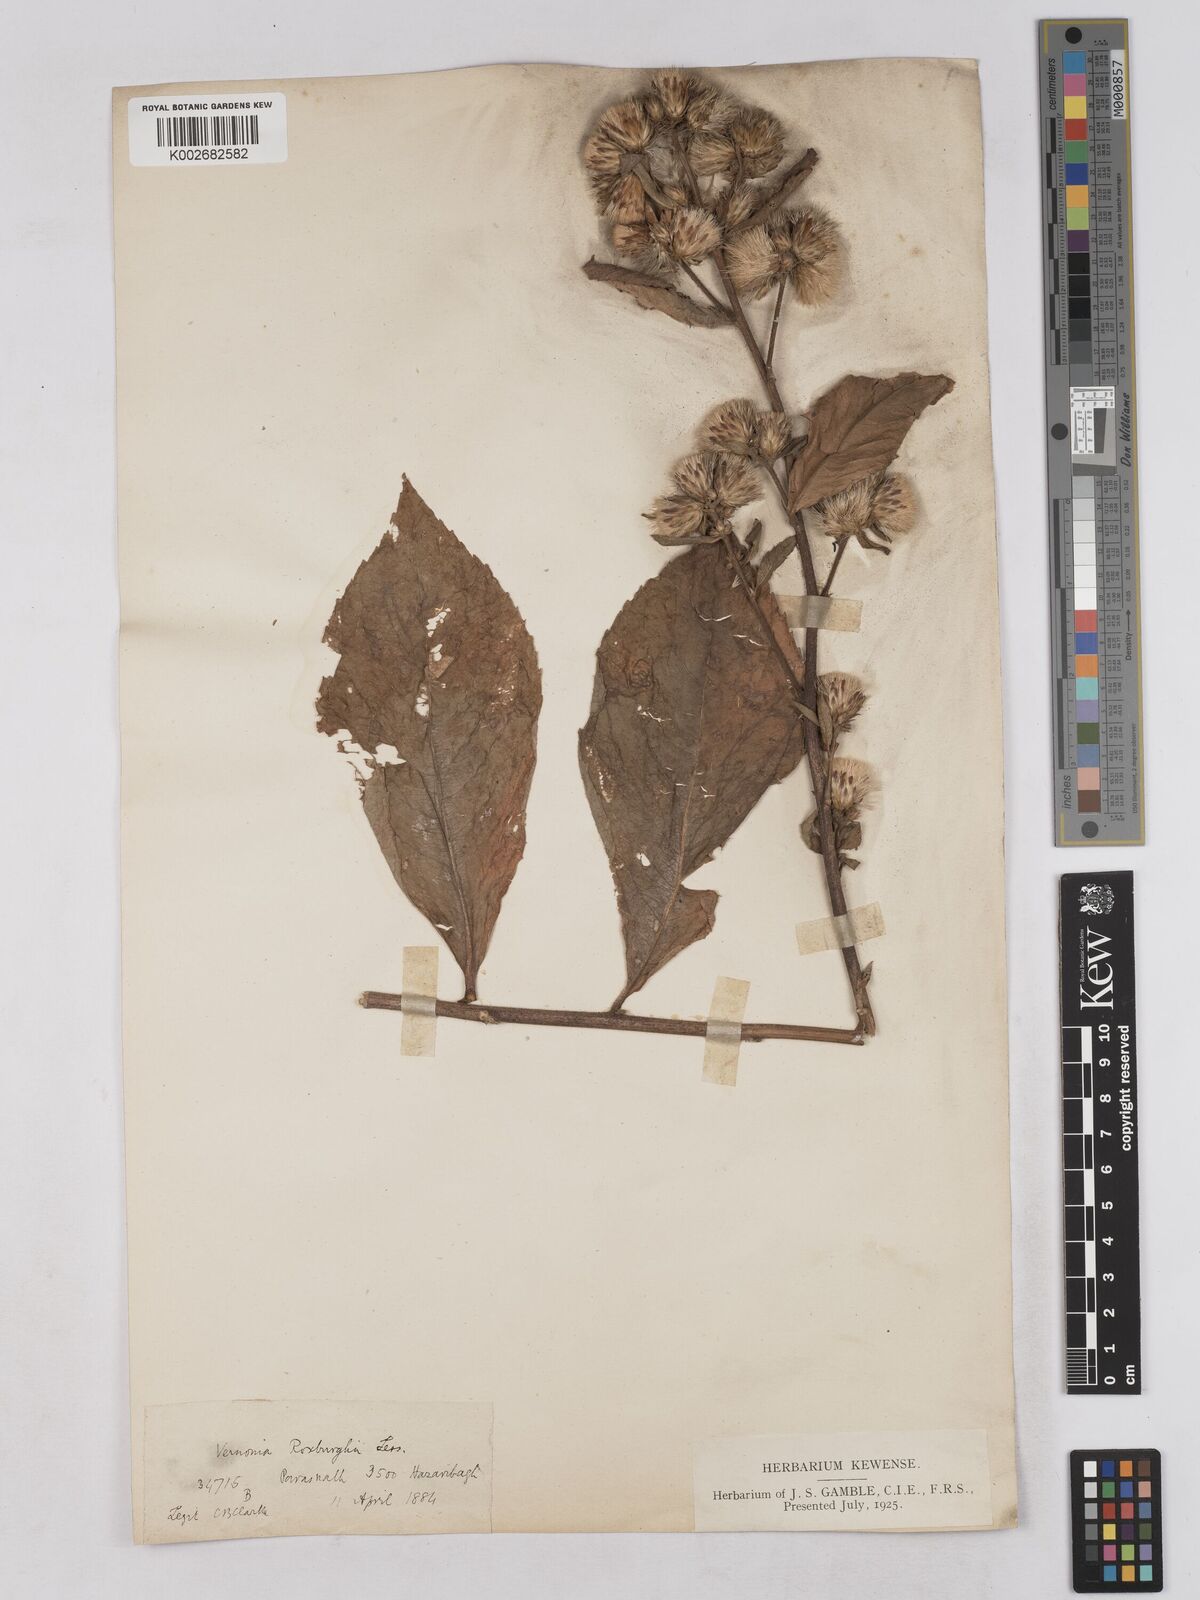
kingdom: Plantae
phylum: Tracheophyta
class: Magnoliopsida
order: Asterales
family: Asteraceae
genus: Acilepis
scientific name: Acilepis aspera
